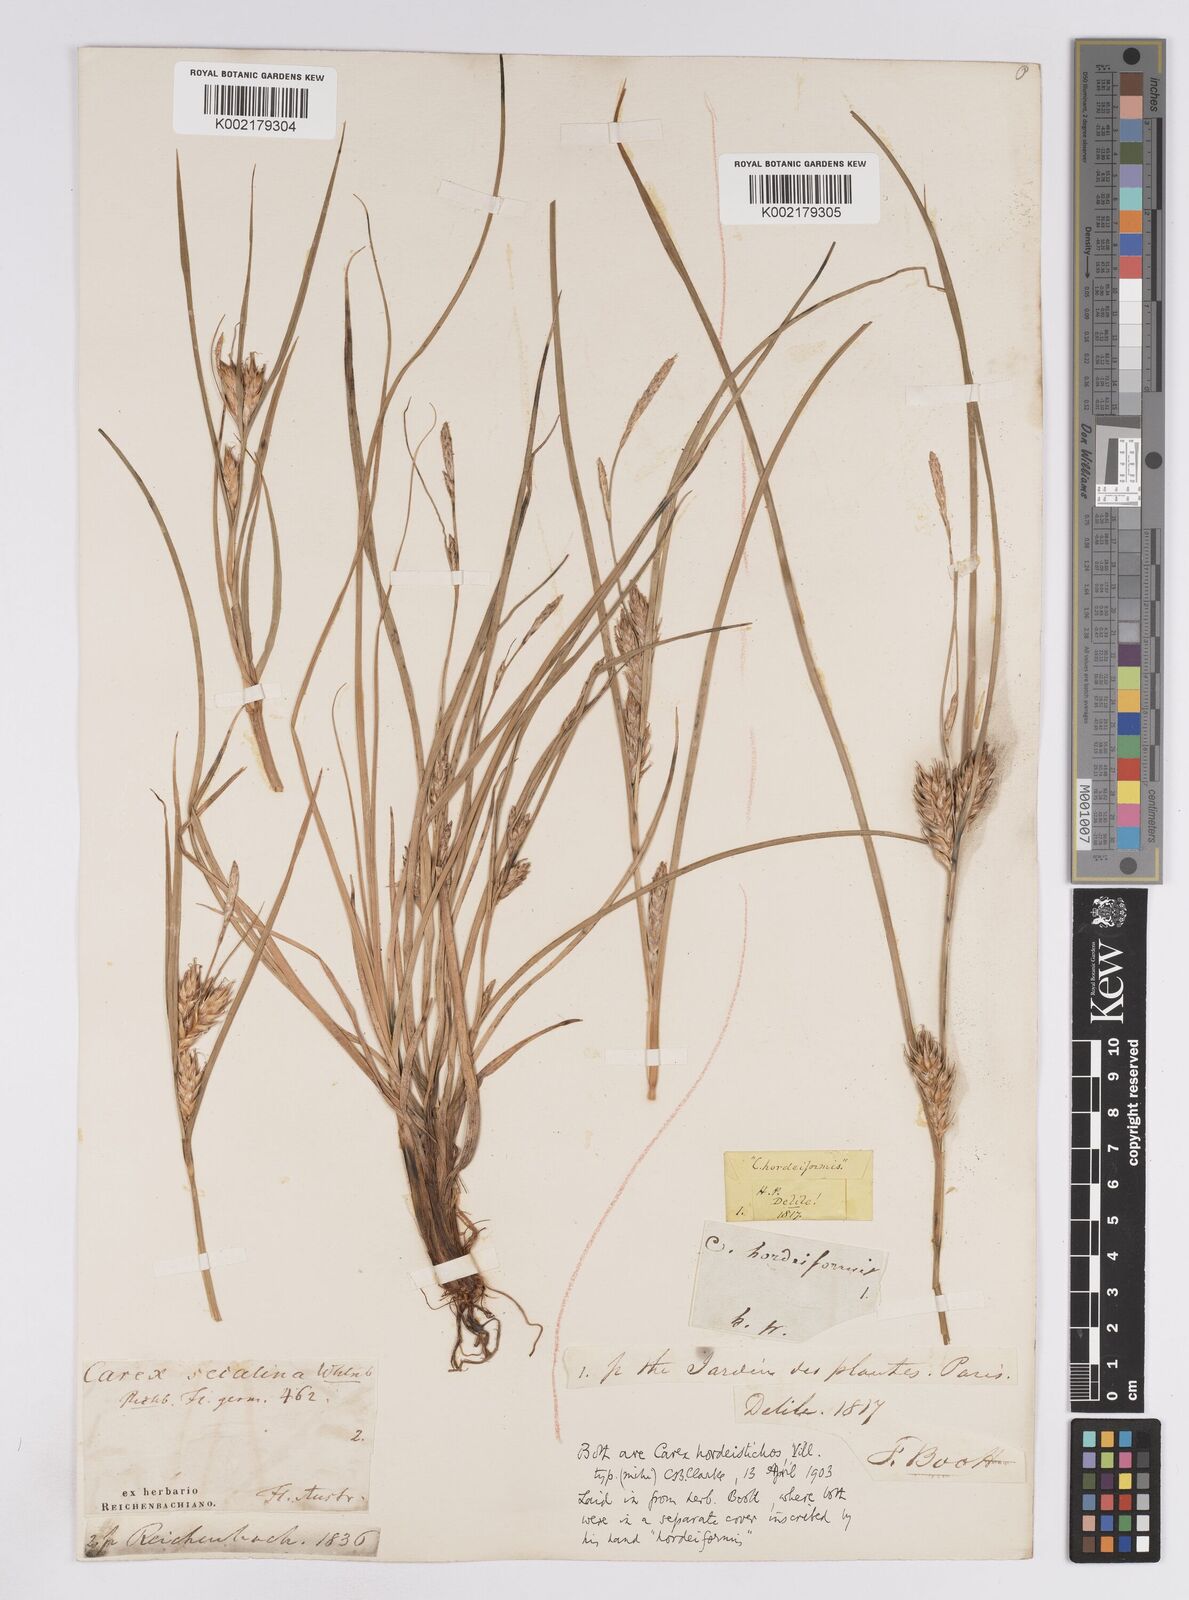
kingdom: Plantae
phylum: Tracheophyta
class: Liliopsida
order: Poales
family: Cyperaceae
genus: Carex
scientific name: Carex hordeistichos
